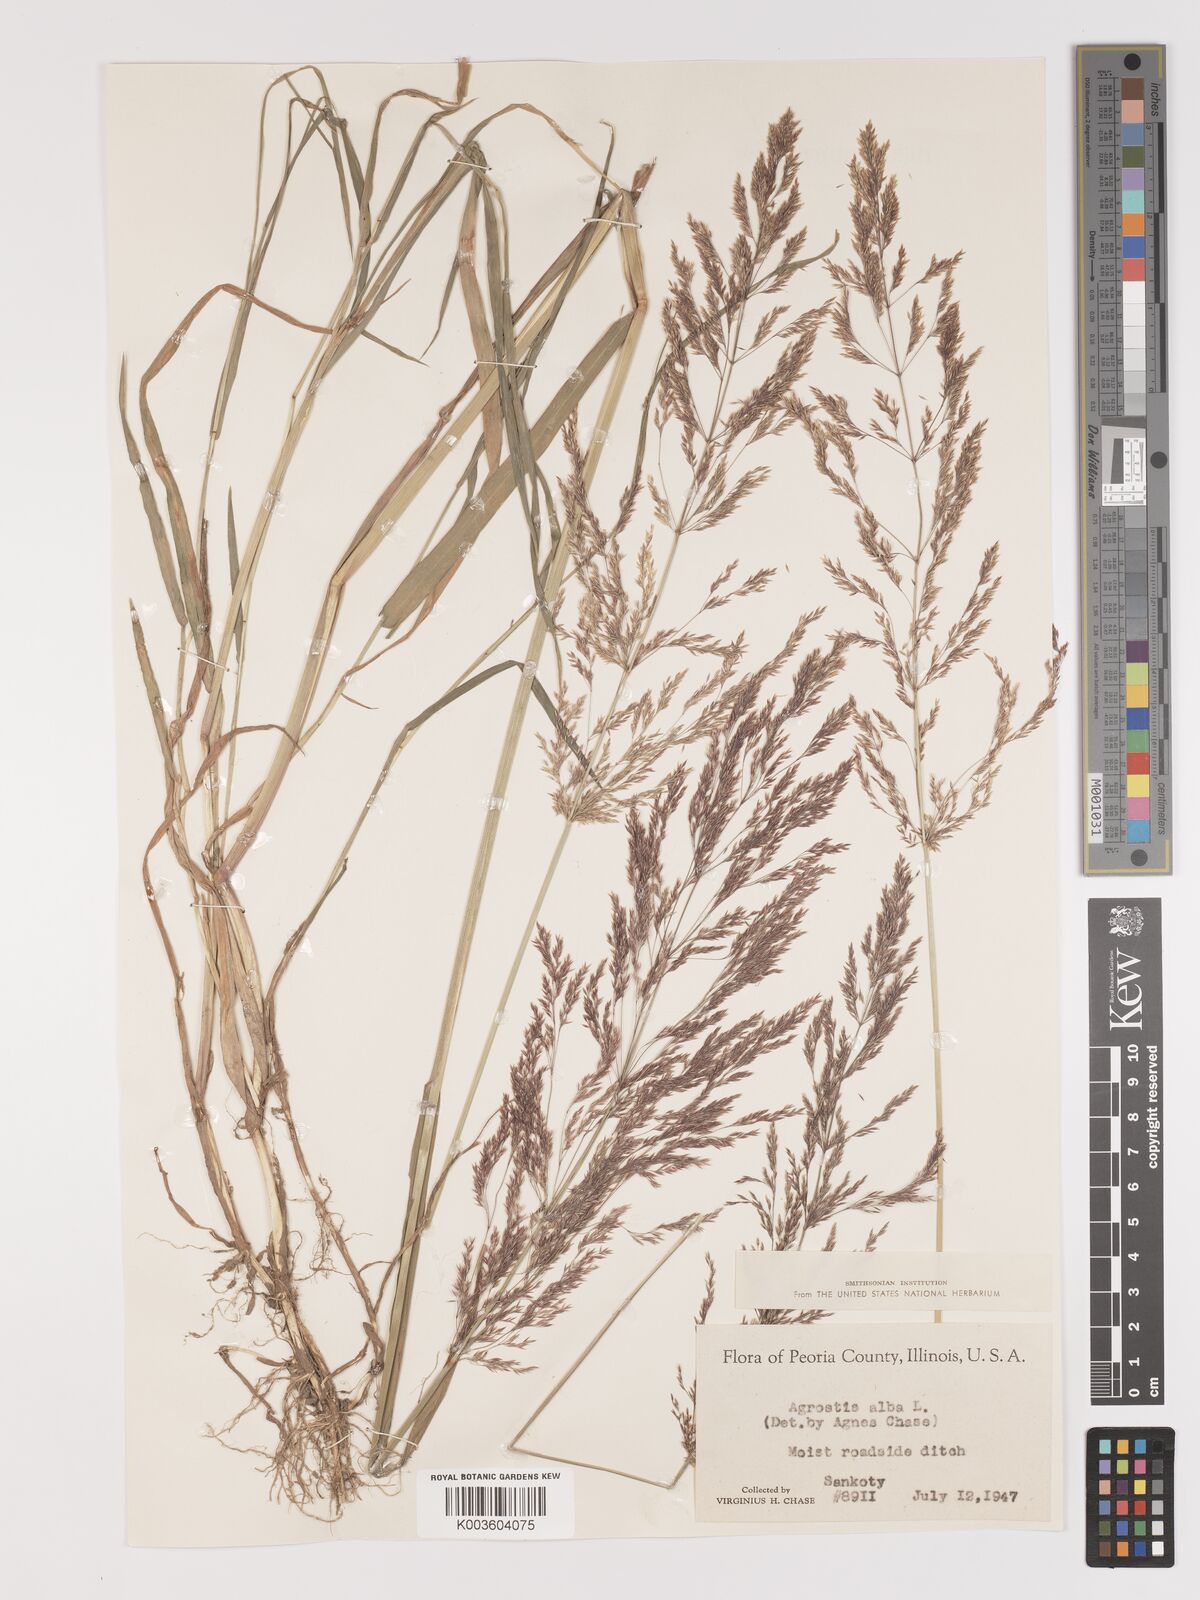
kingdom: Plantae
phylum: Tracheophyta
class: Liliopsida
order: Poales
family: Poaceae
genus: Agrostis
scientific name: Agrostis gigantea
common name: Black bent
